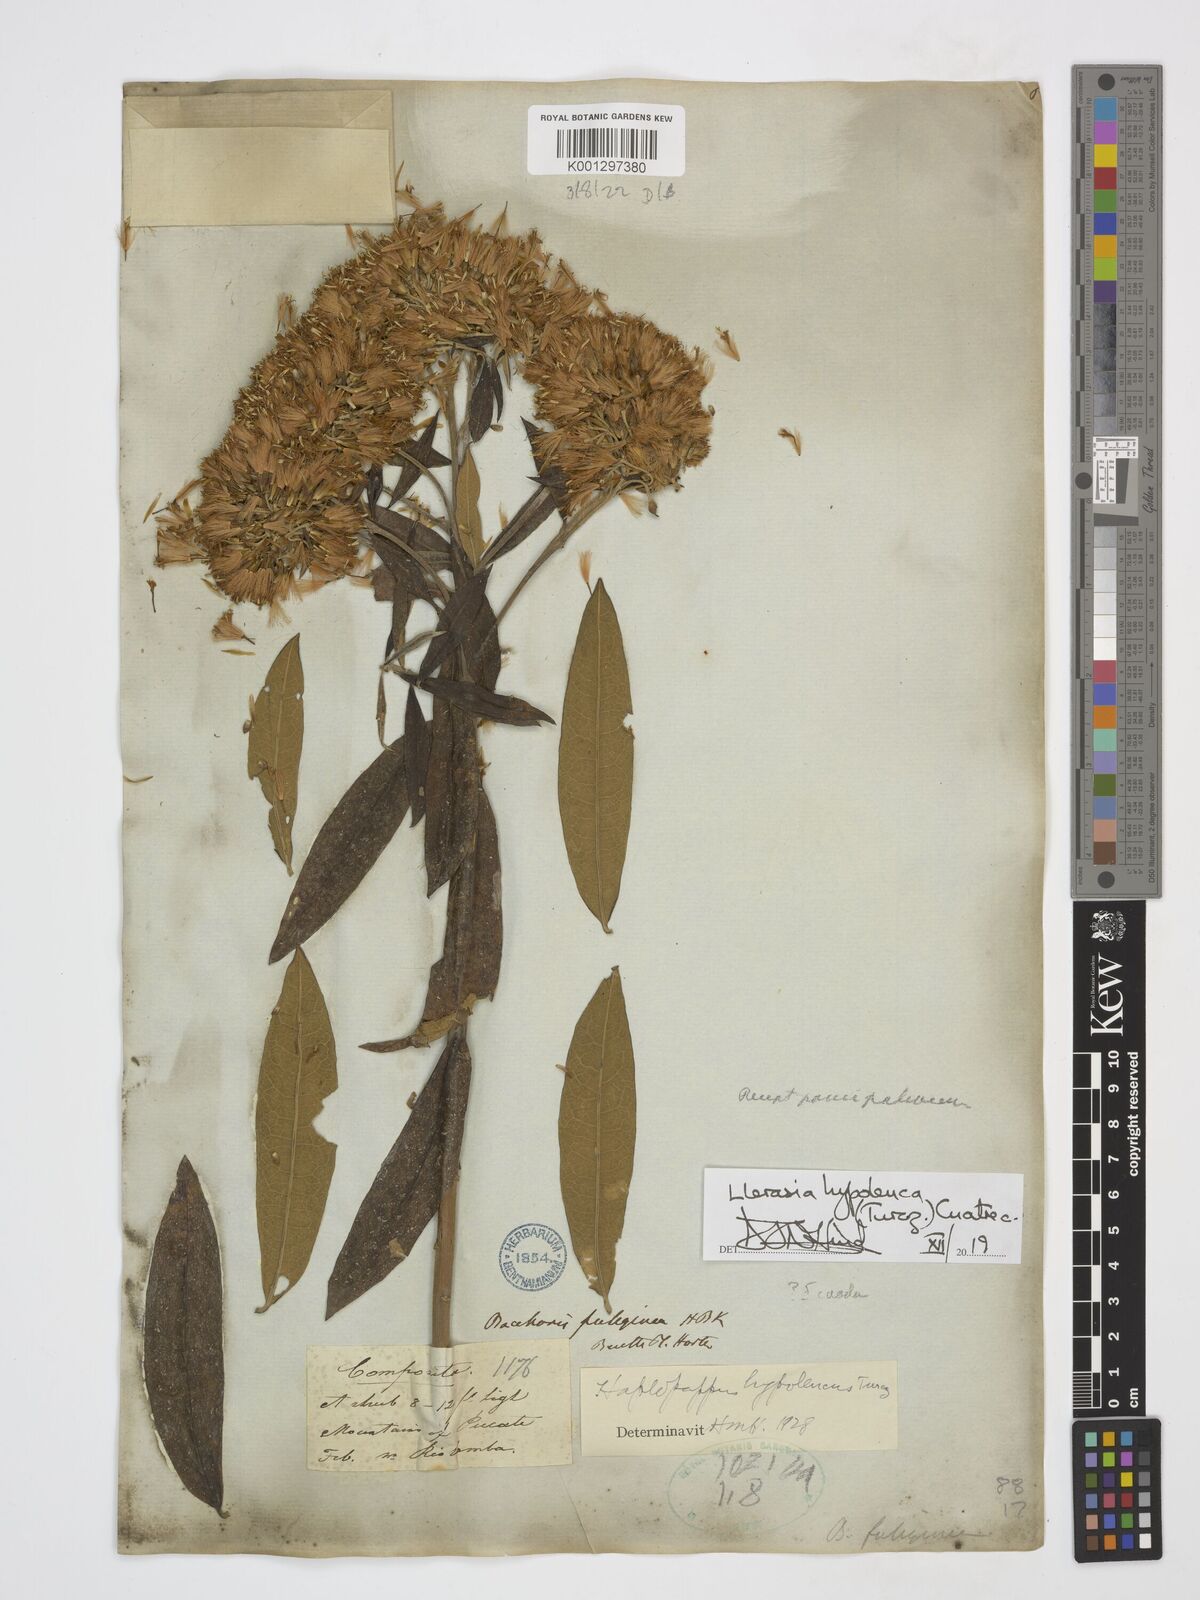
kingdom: Plantae
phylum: Tracheophyta
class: Magnoliopsida
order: Asterales
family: Asteraceae
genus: Llerasia
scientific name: Llerasia hypoleuca
